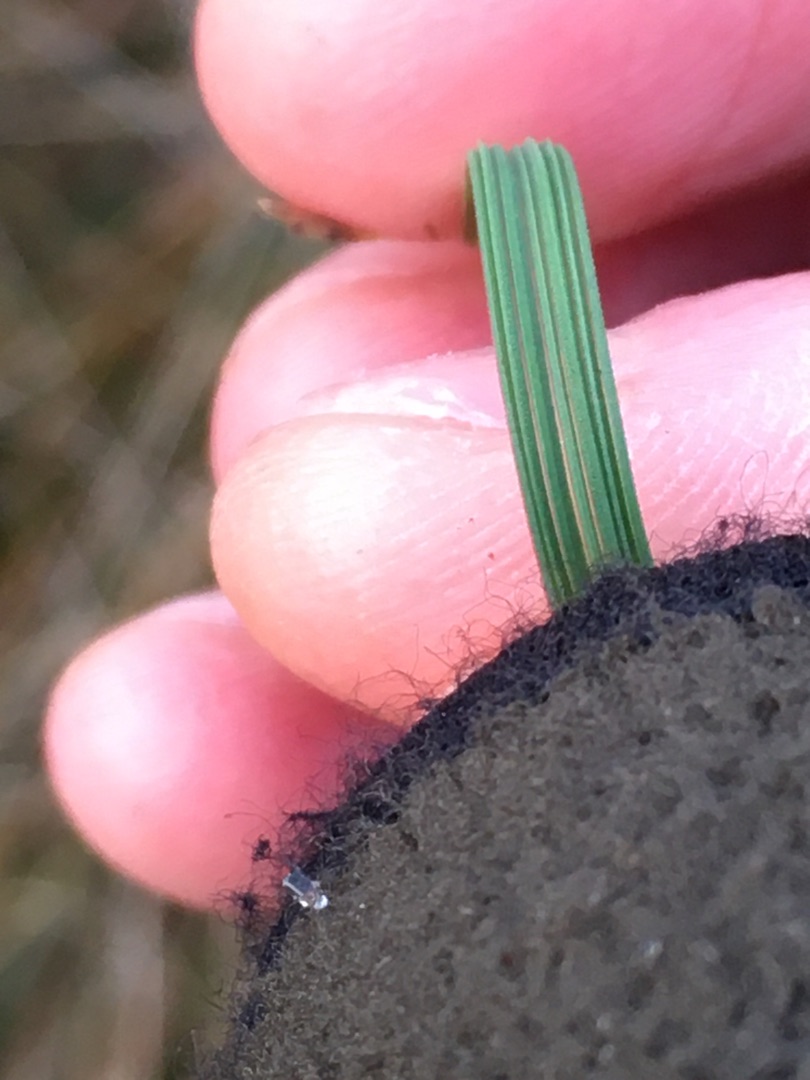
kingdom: Plantae
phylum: Tracheophyta
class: Liliopsida
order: Poales
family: Poaceae
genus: Deschampsia
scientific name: Deschampsia cespitosa
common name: Mose-bunke
